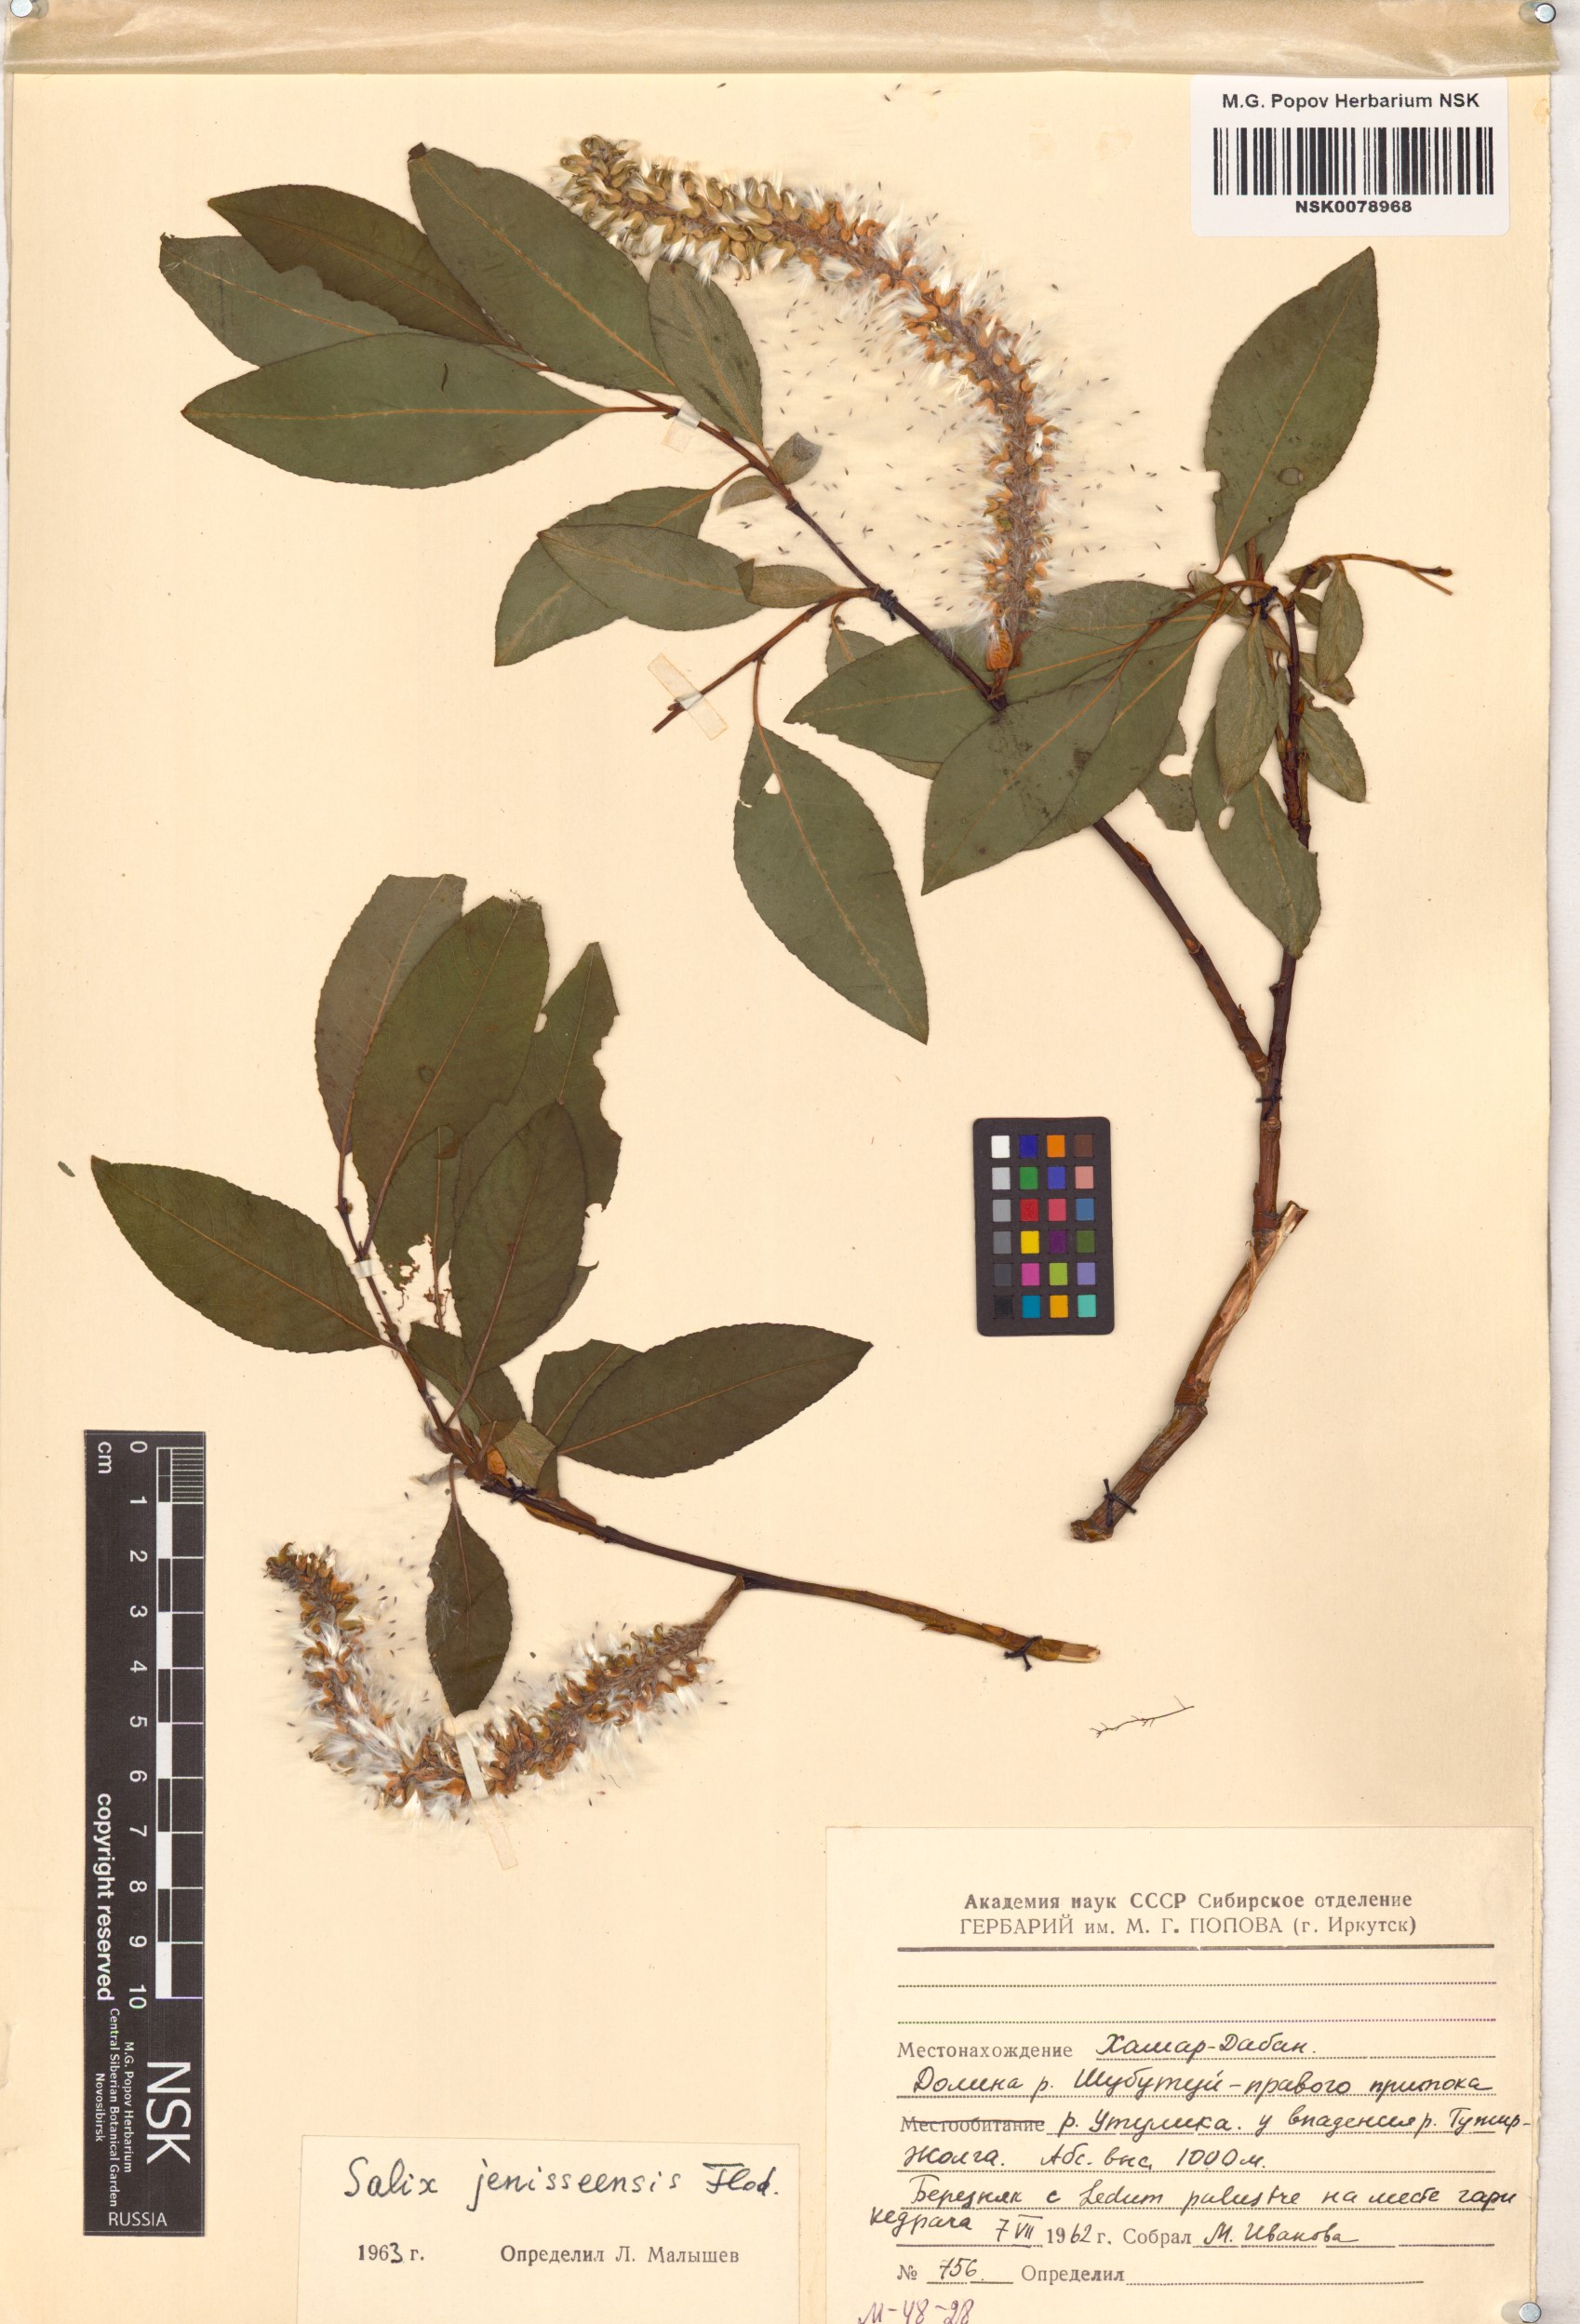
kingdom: Plantae
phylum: Tracheophyta
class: Magnoliopsida
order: Malpighiales
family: Salicaceae
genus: Salix
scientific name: Salix jenisseensis
